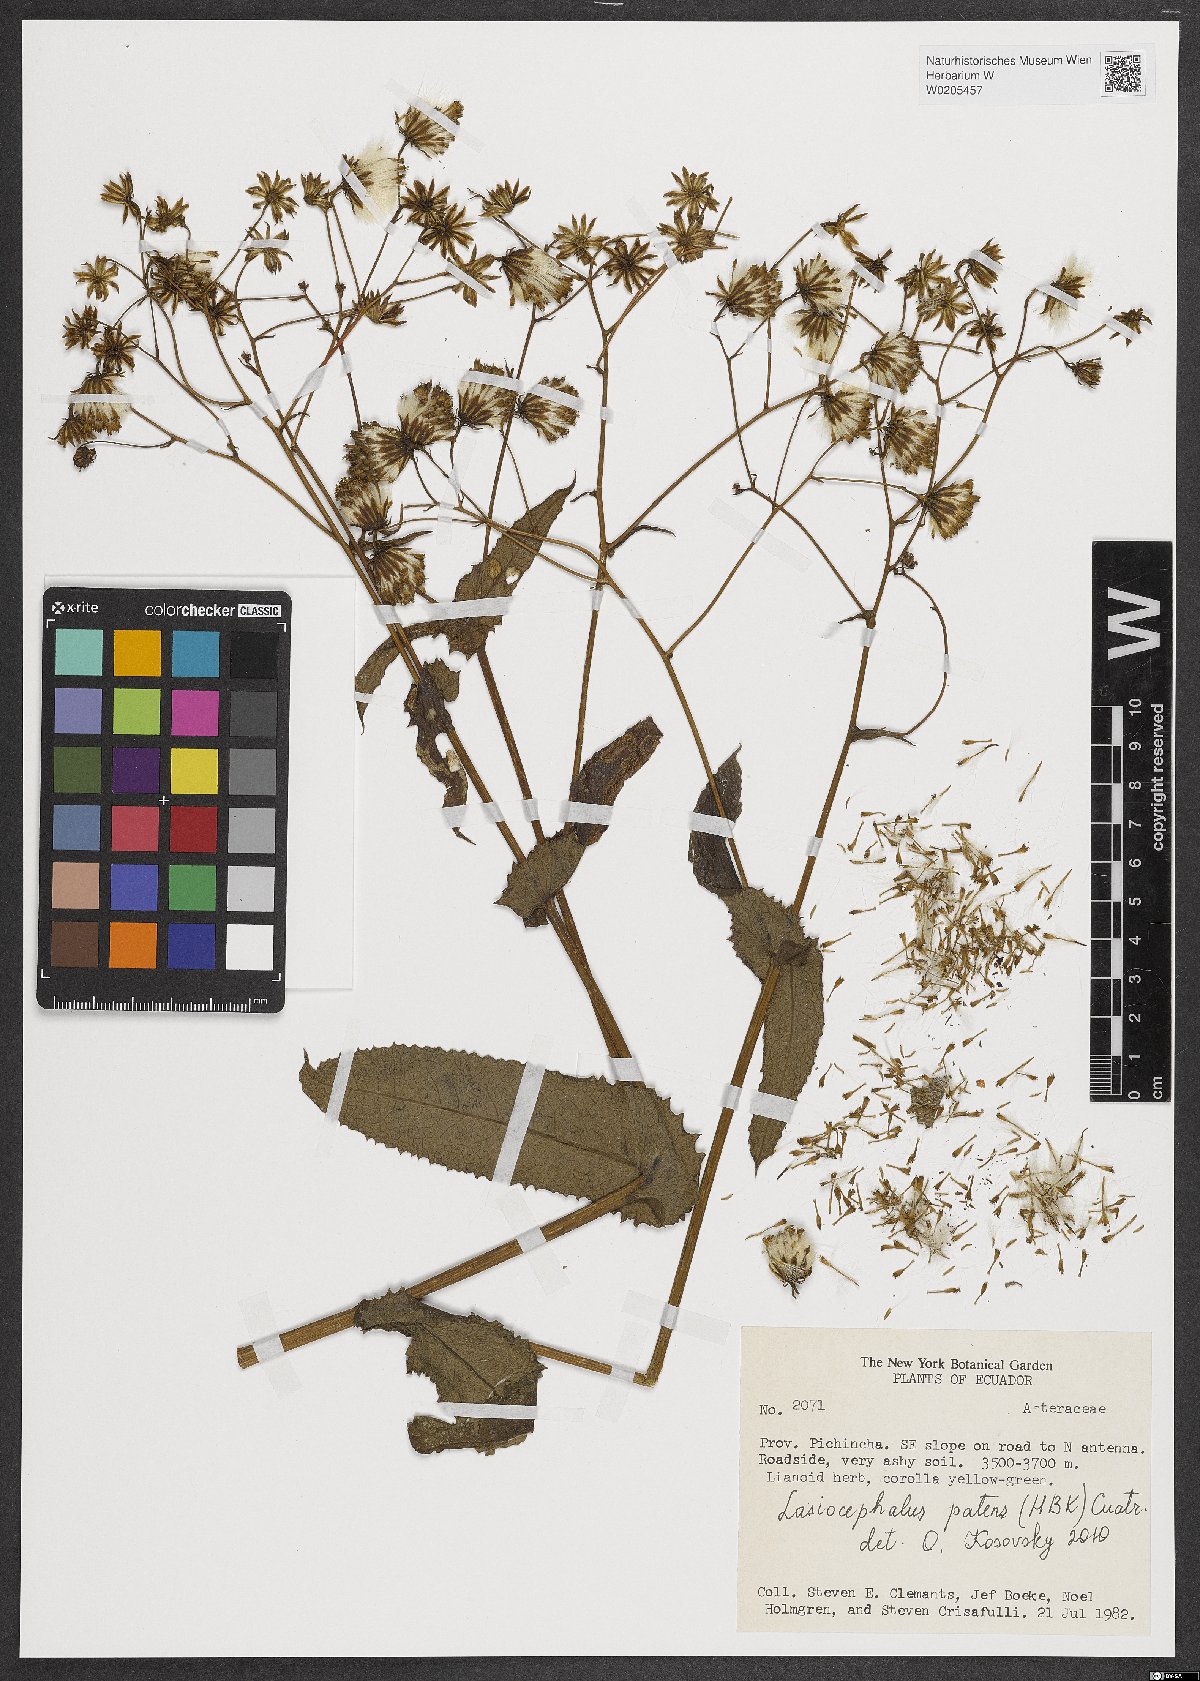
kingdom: Plantae
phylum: Tracheophyta
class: Magnoliopsida
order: Asterales
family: Asteraceae
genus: Aetheolaena
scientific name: Aetheolaena patens
